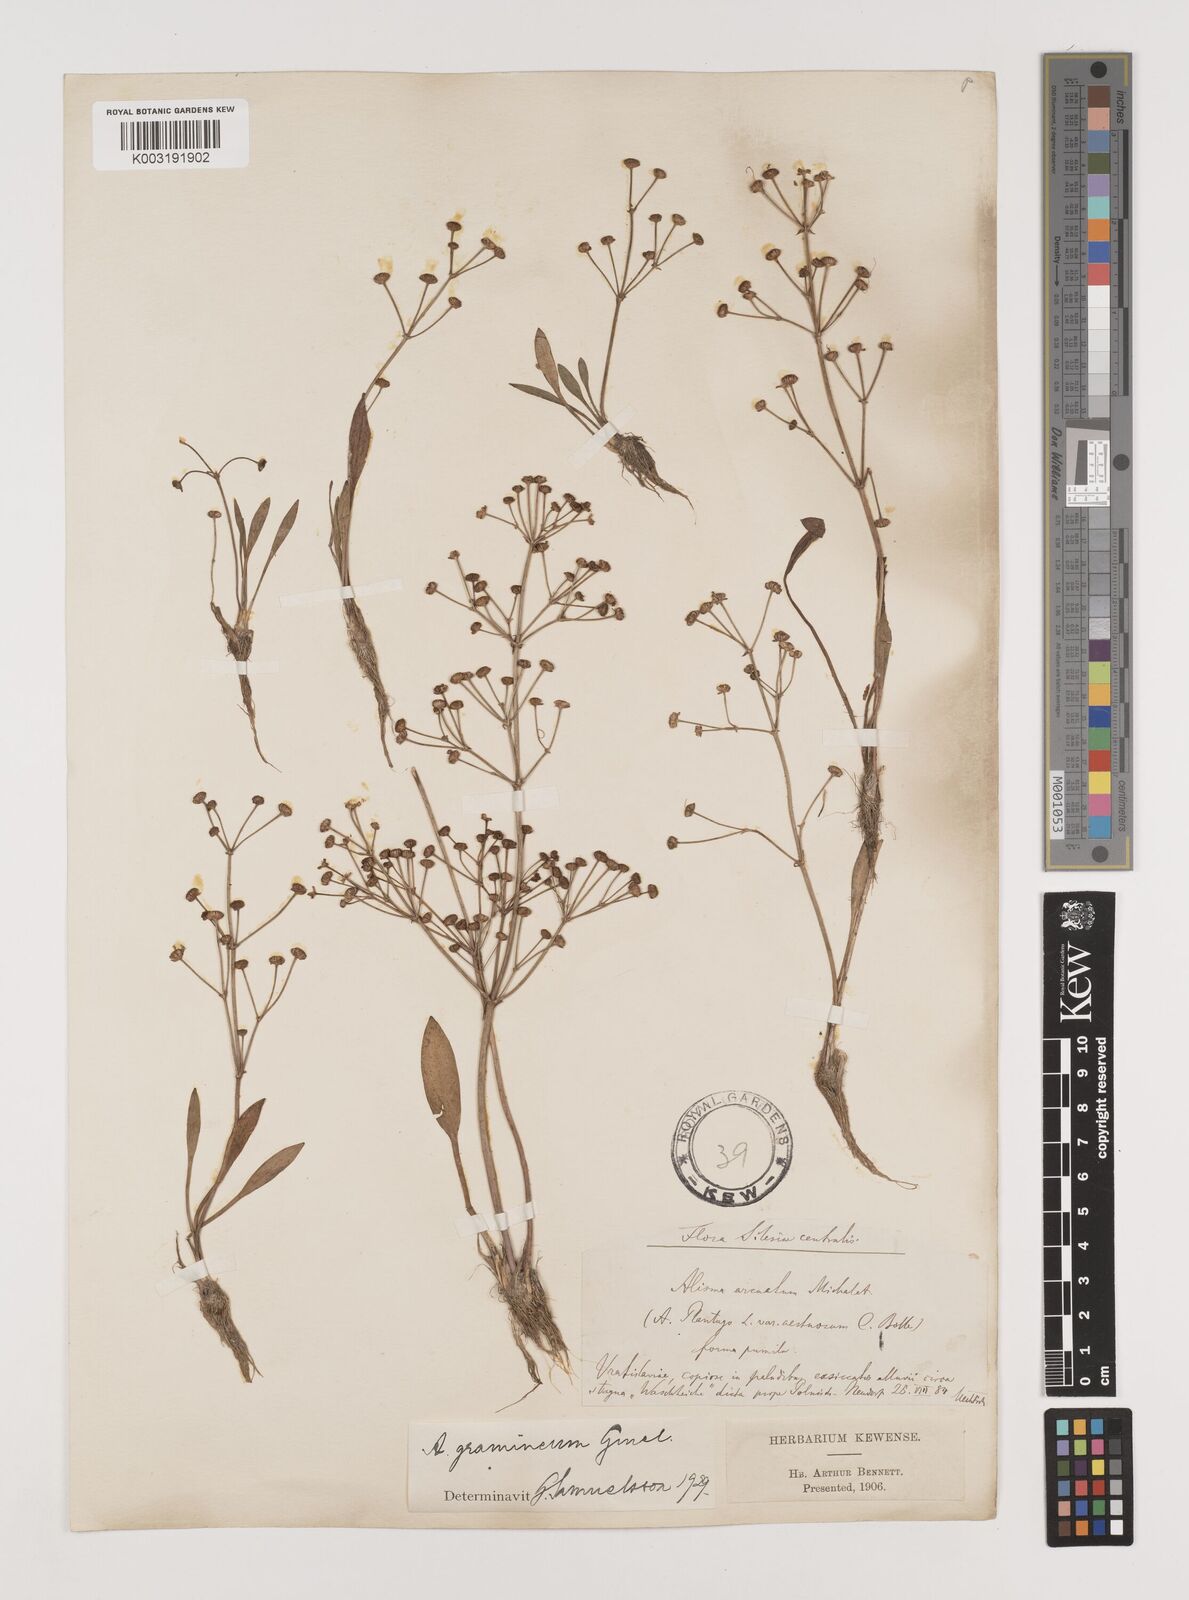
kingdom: Plantae
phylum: Tracheophyta
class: Liliopsida
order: Alismatales
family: Alismataceae
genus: Alisma
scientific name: Alisma gramineum
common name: Ribbon-leaved water-plantain
